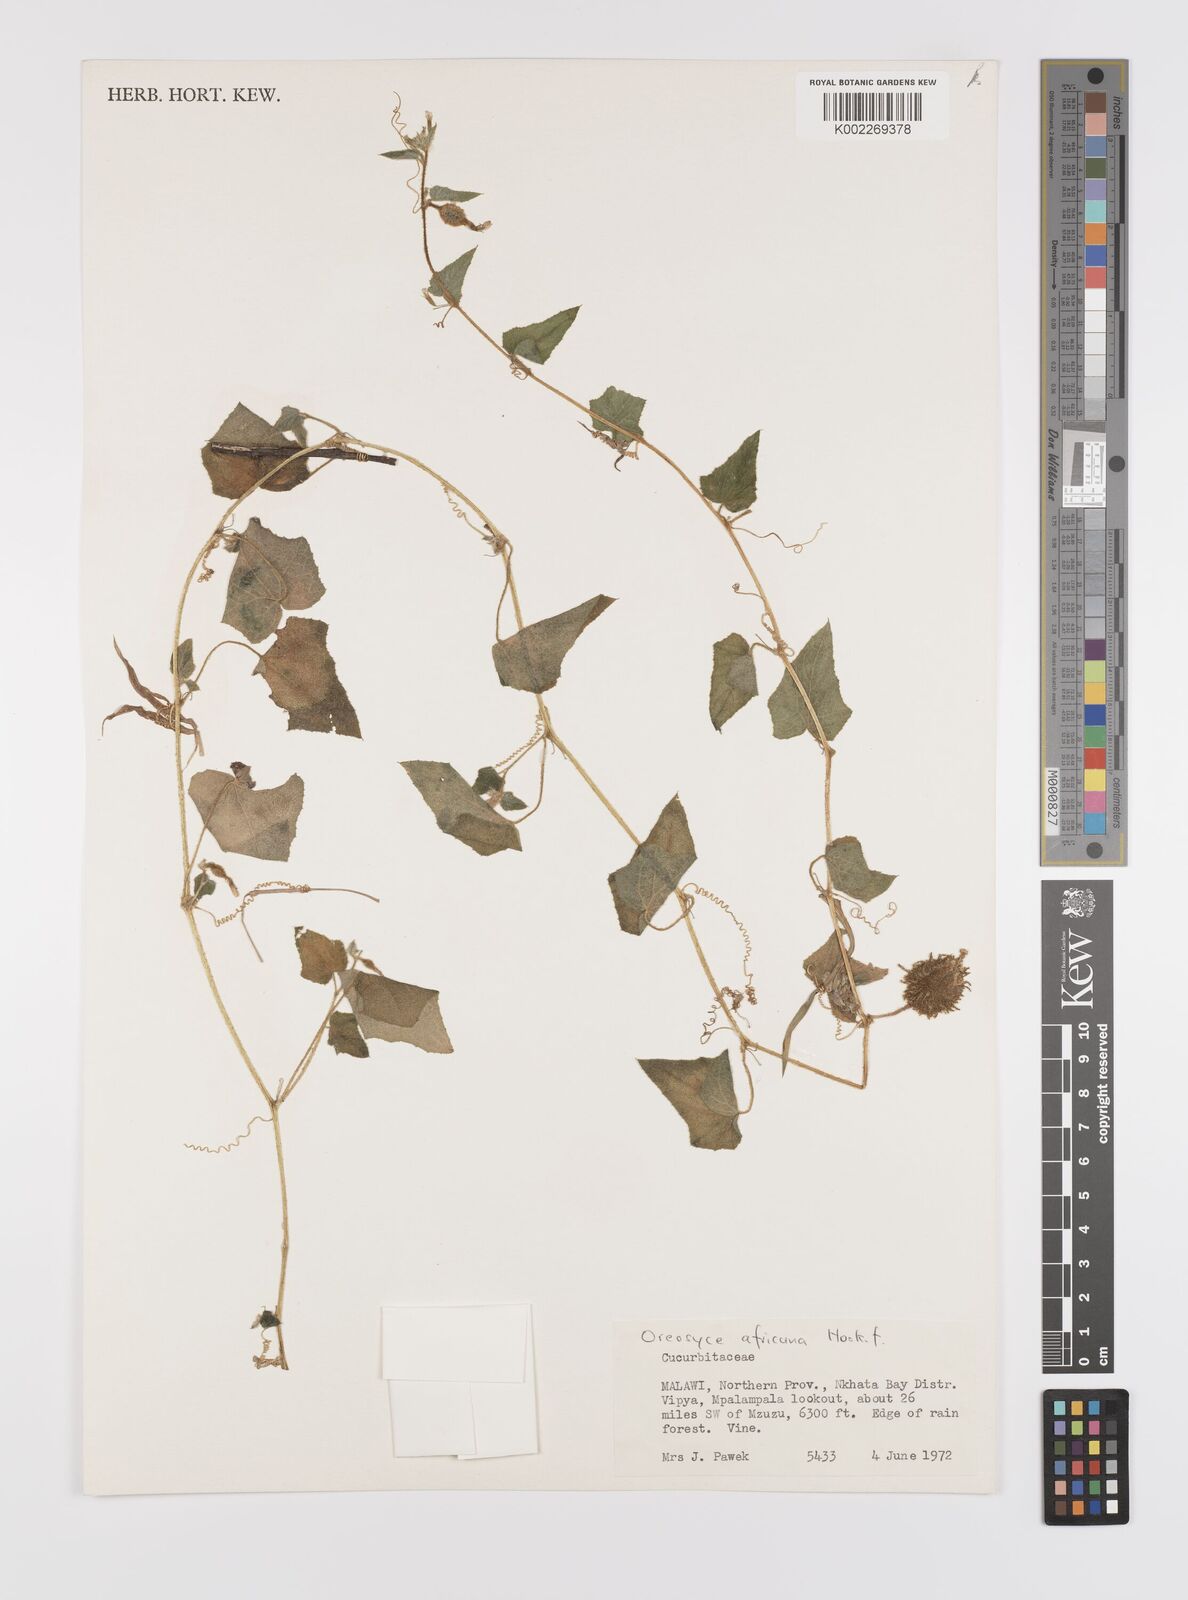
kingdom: Plantae
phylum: Tracheophyta
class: Magnoliopsida
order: Cucurbitales
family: Cucurbitaceae
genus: Cucumis
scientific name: Cucumis oreosyce
